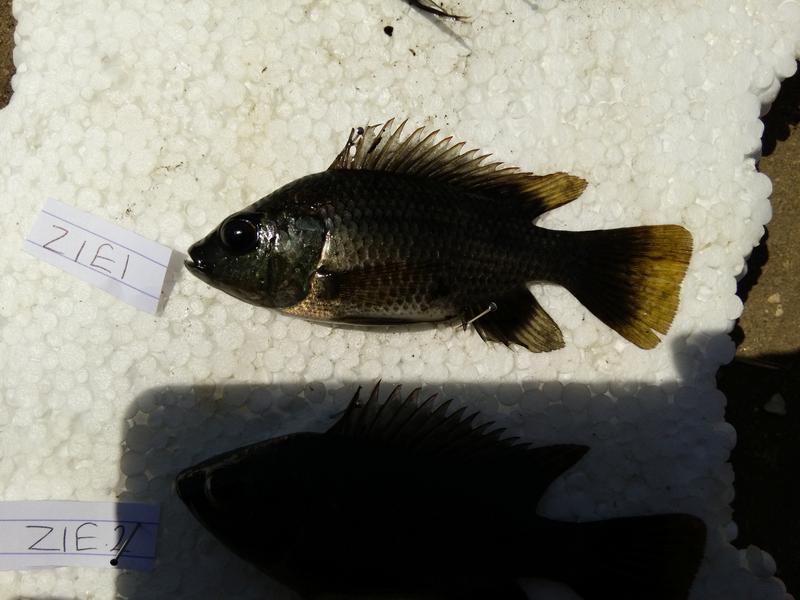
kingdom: Animalia
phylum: Chordata
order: Perciformes
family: Cichlidae
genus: Oreochromis
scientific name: Oreochromis urolepis
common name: Wami tilapia
